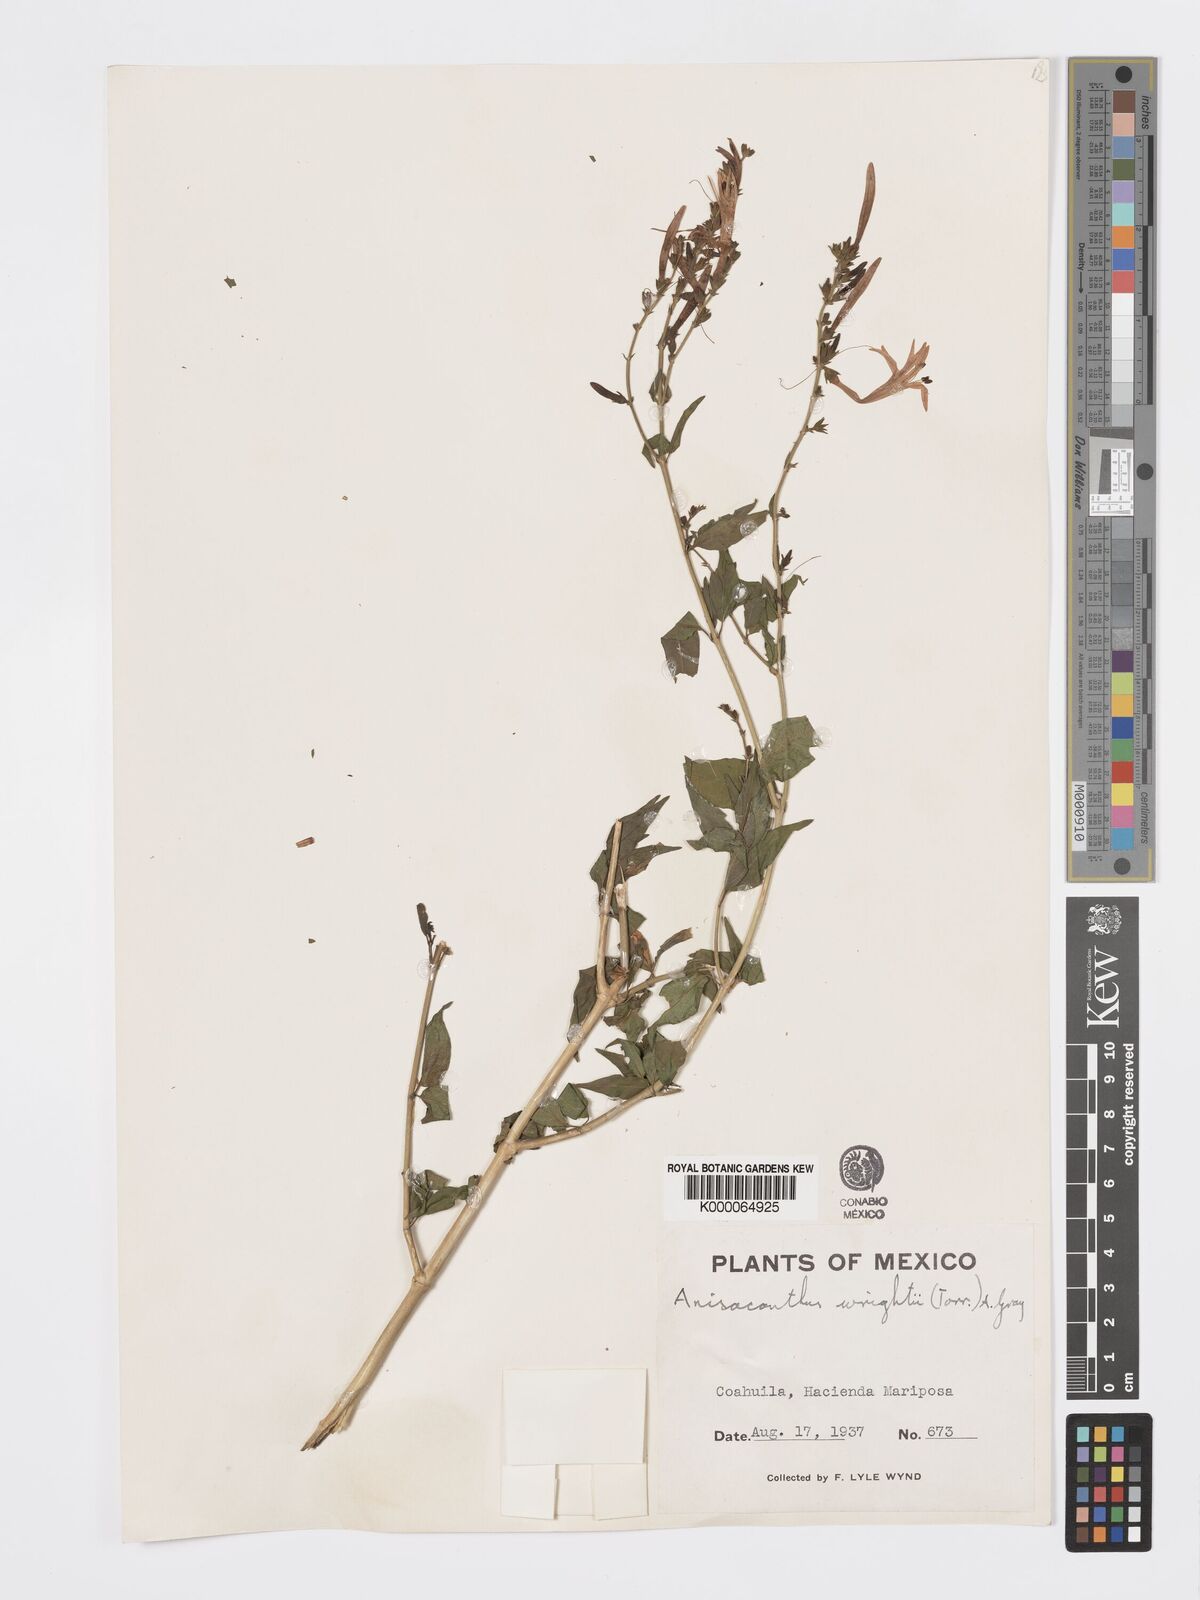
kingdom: Plantae
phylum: Tracheophyta
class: Magnoliopsida
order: Lamiales
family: Acanthaceae
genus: Anisacanthus
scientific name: Anisacanthus quadrifidus
